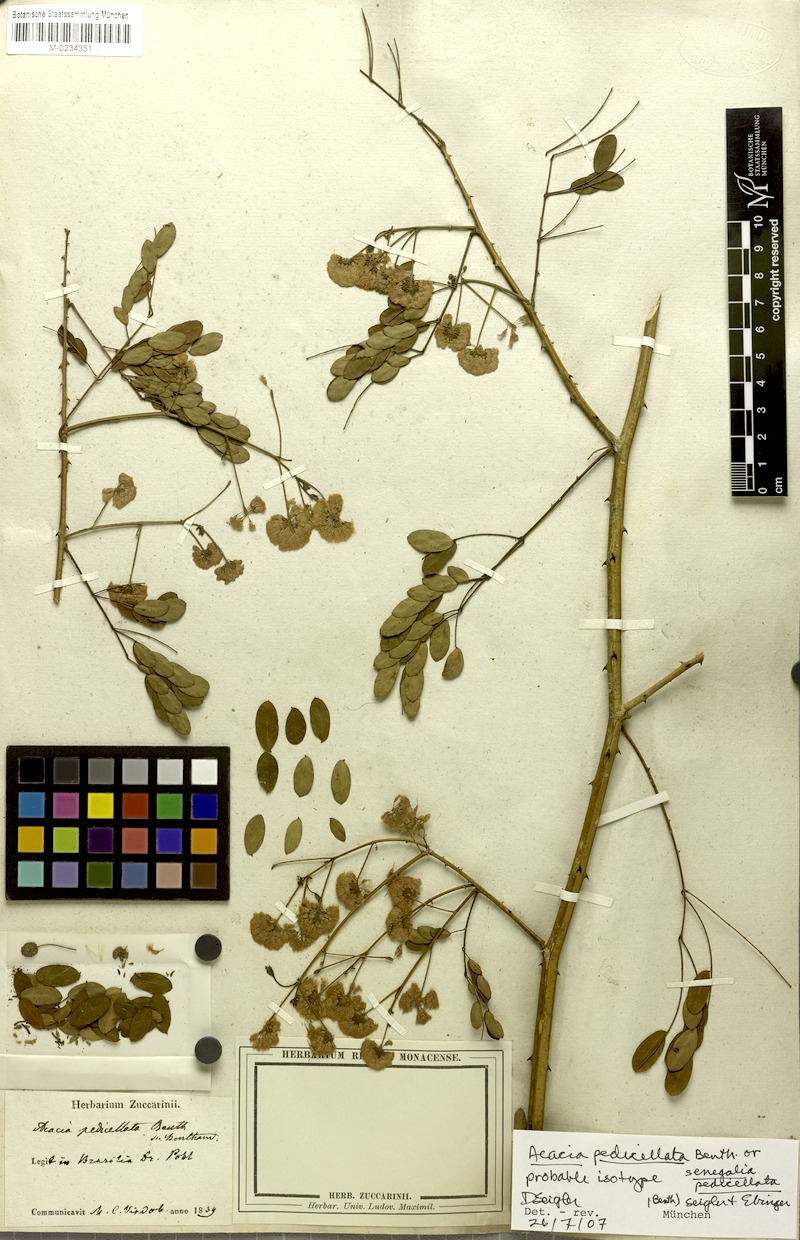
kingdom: Plantae
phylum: Tracheophyta
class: Magnoliopsida
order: Fabales
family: Fabaceae
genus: Senegalia
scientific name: Senegalia pedicellata
